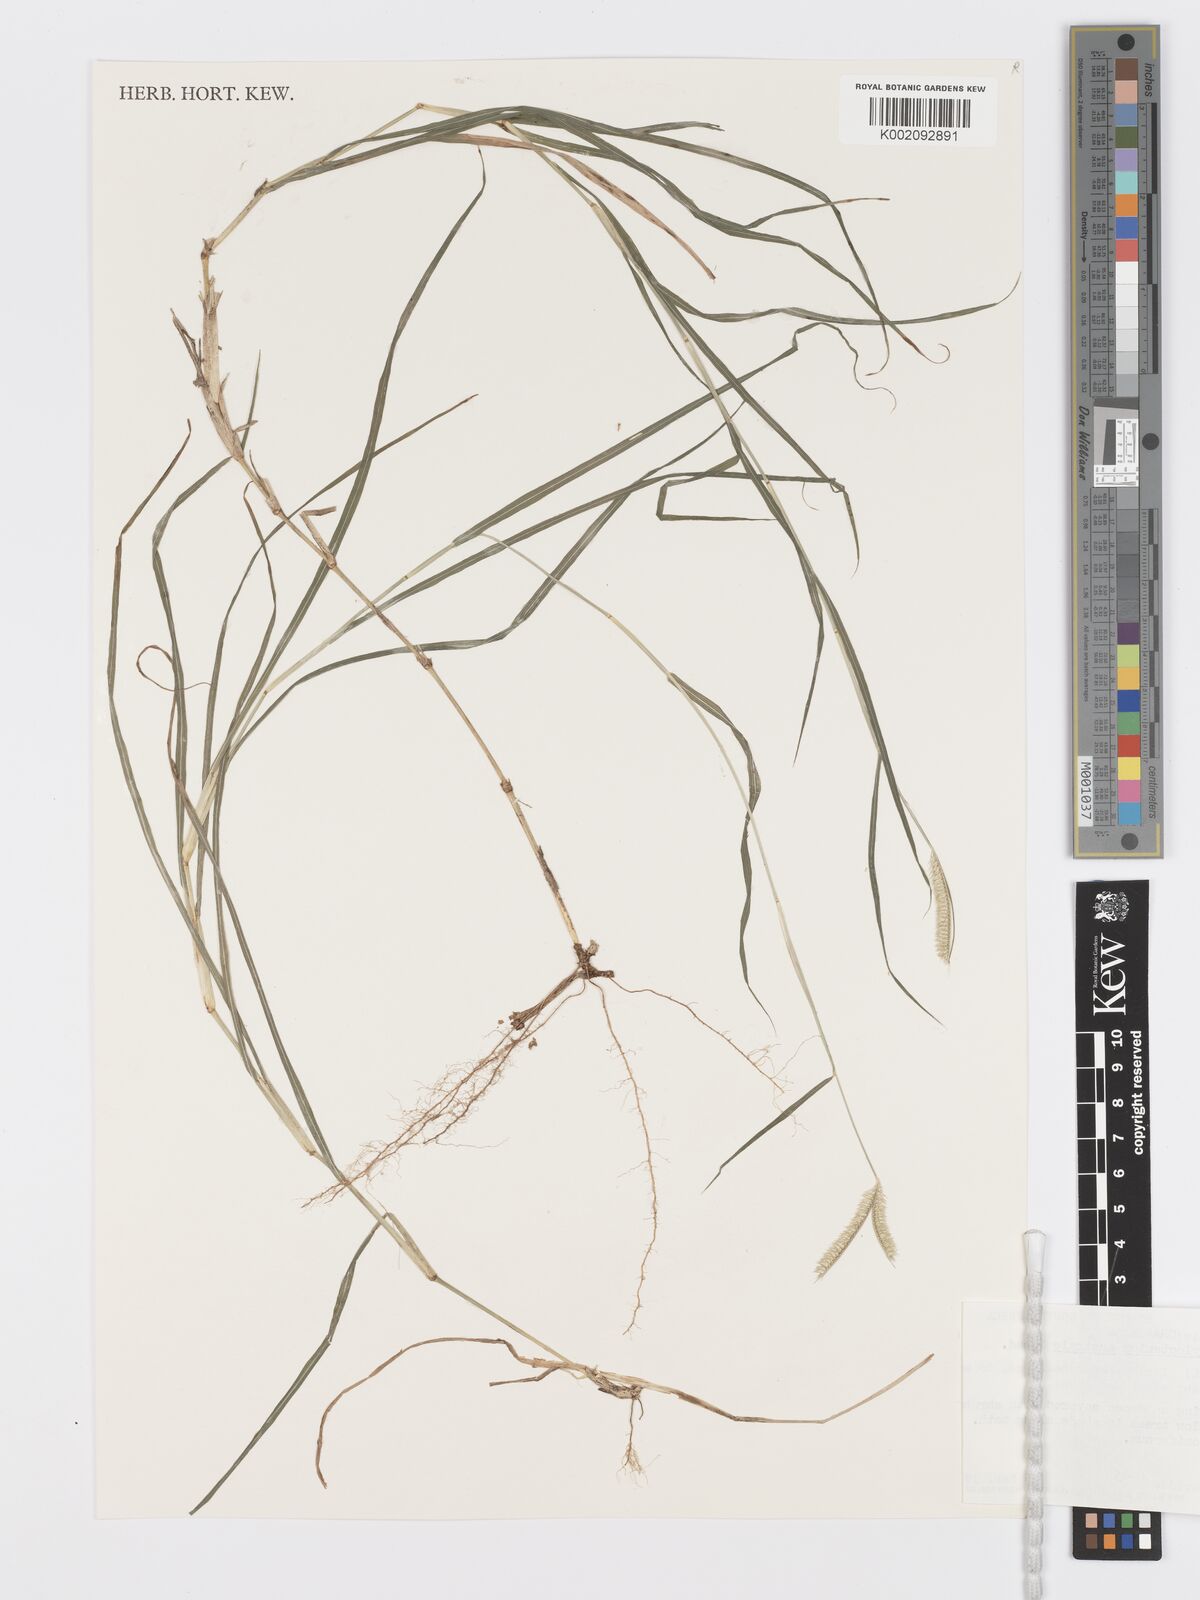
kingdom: Plantae
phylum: Tracheophyta
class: Liliopsida
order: Poales
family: Poaceae
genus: Dactyloctenium
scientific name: Dactyloctenium australe
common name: Durban grass
